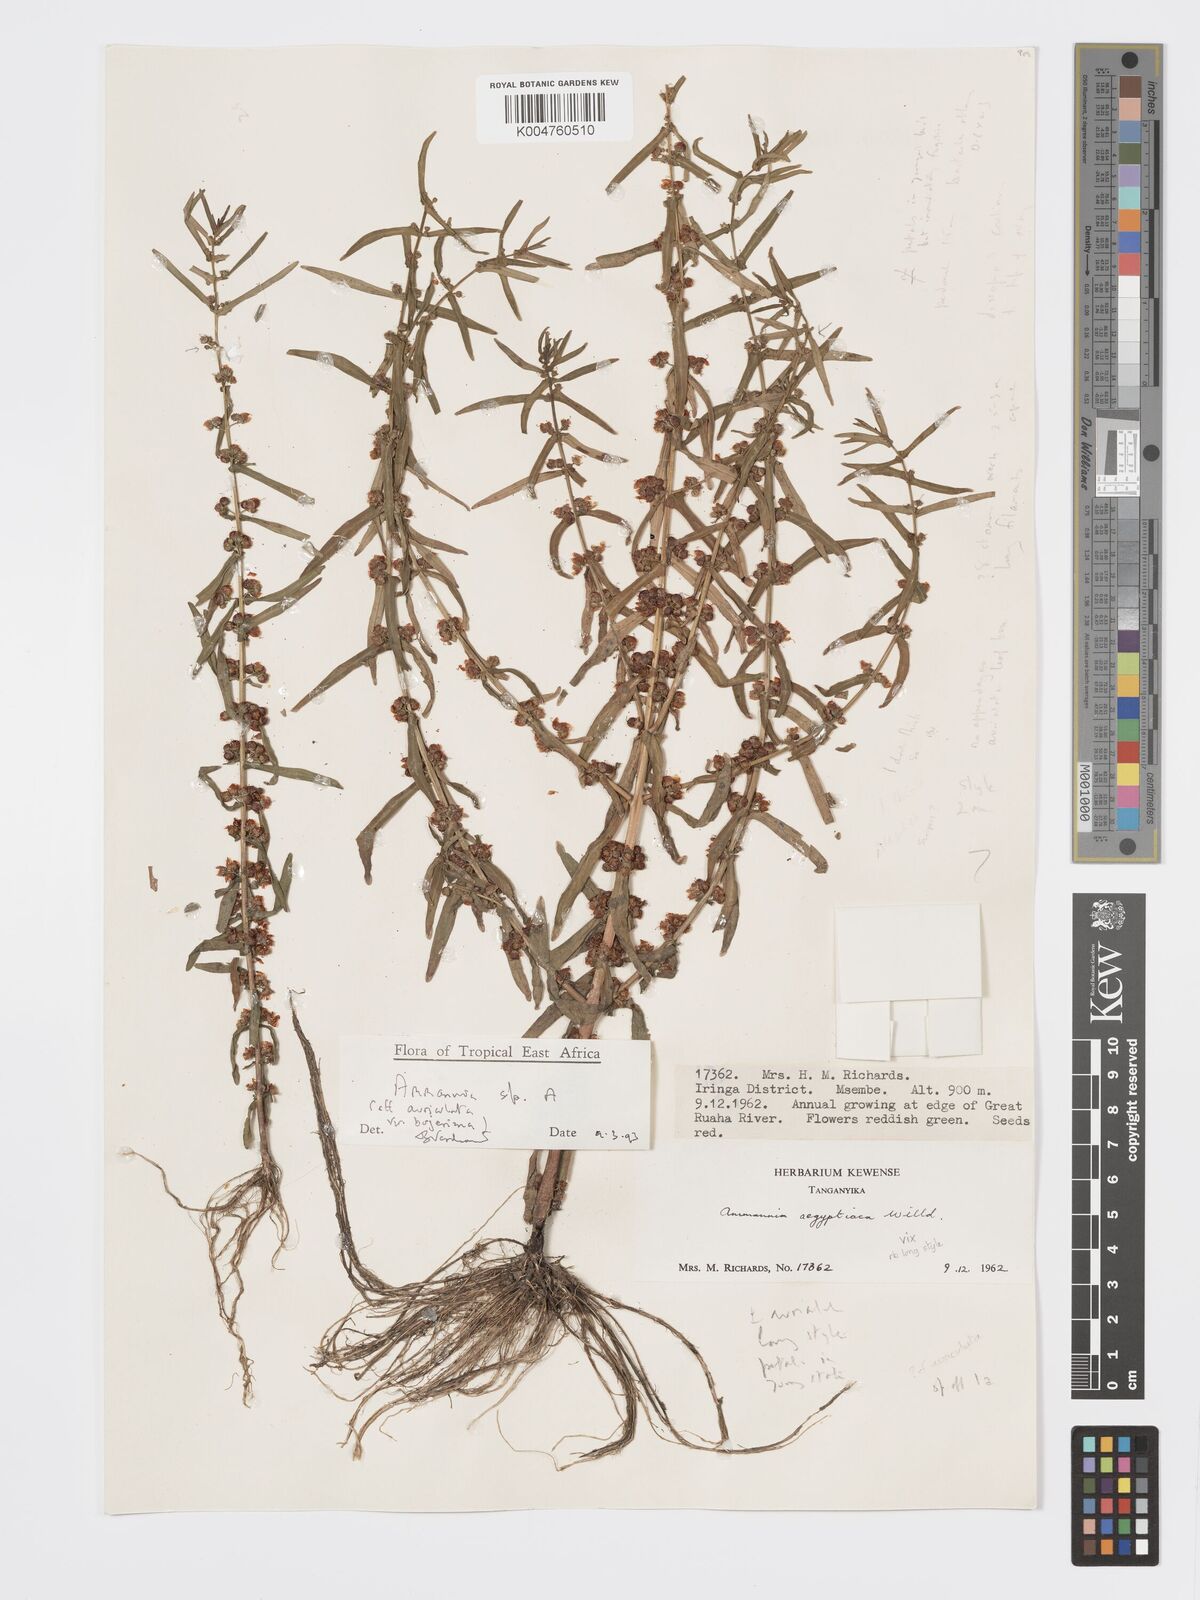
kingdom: Plantae
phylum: Tracheophyta
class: Magnoliopsida
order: Myrtales
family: Lythraceae
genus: Ammannia
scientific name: Ammannia
